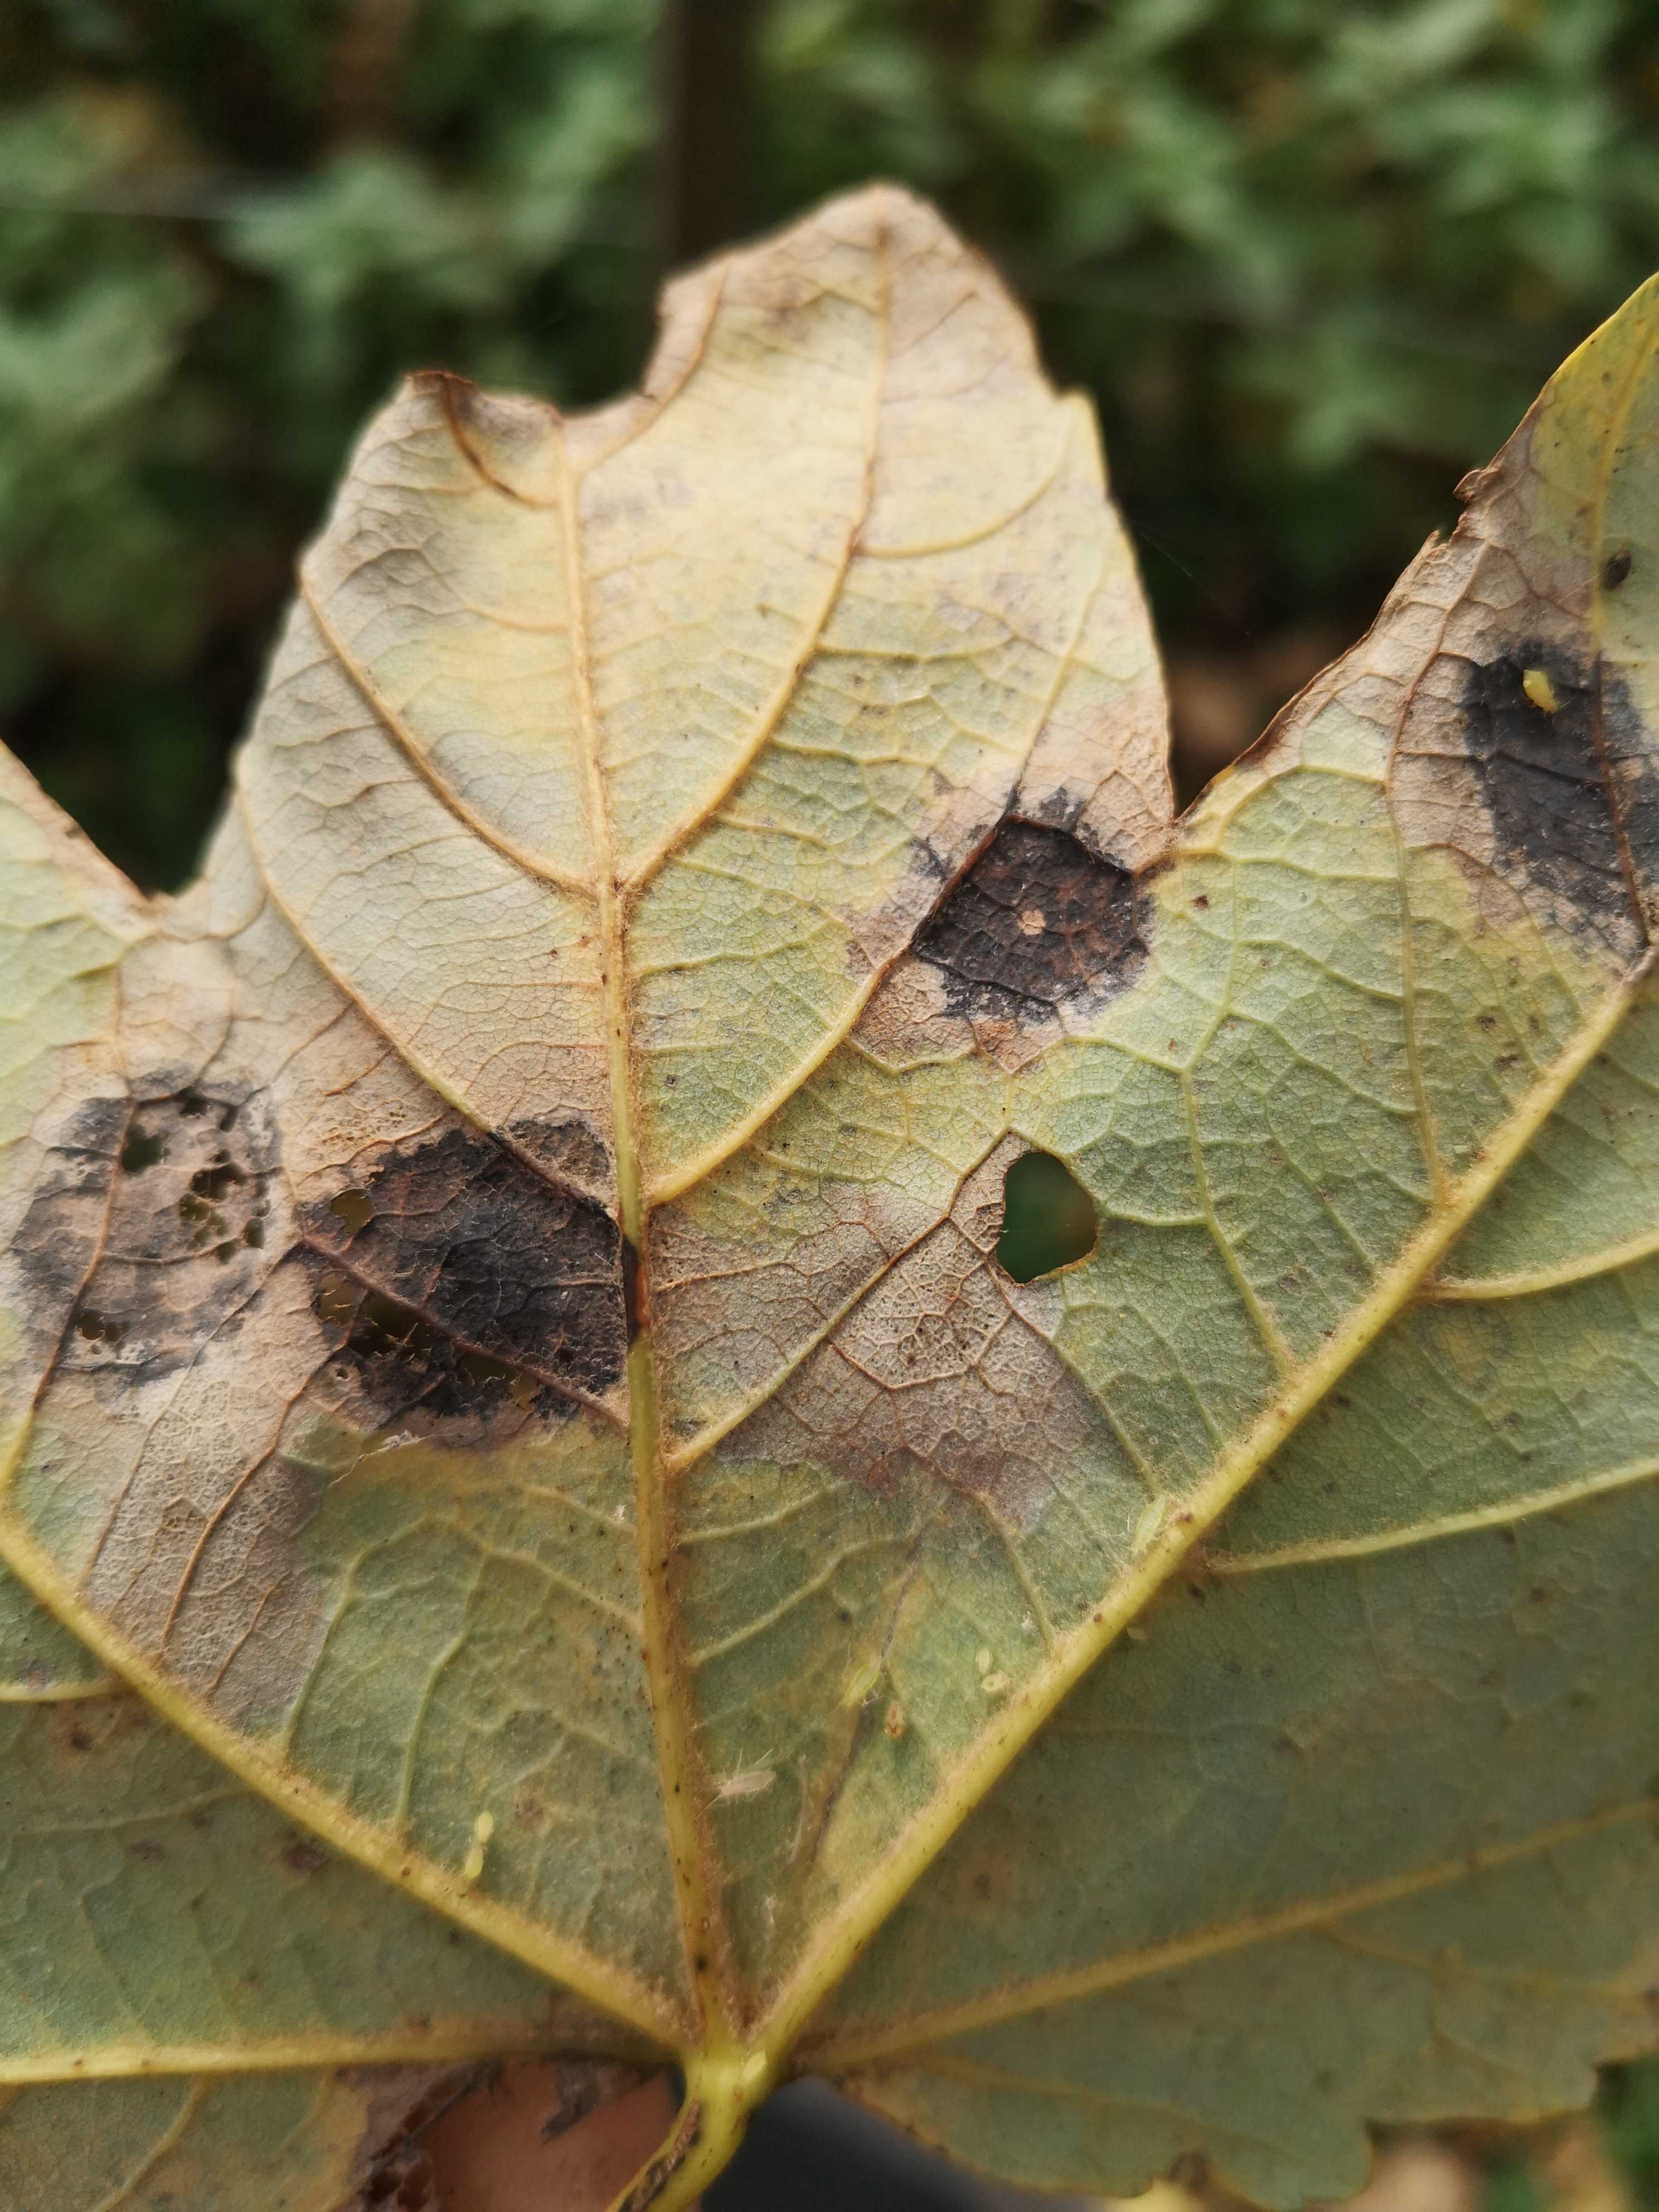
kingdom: Fungi
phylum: Ascomycota
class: Leotiomycetes
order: Rhytismatales
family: Rhytismataceae
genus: Rhytisma
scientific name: Rhytisma acerinum
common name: ahorn-rynkeplet
